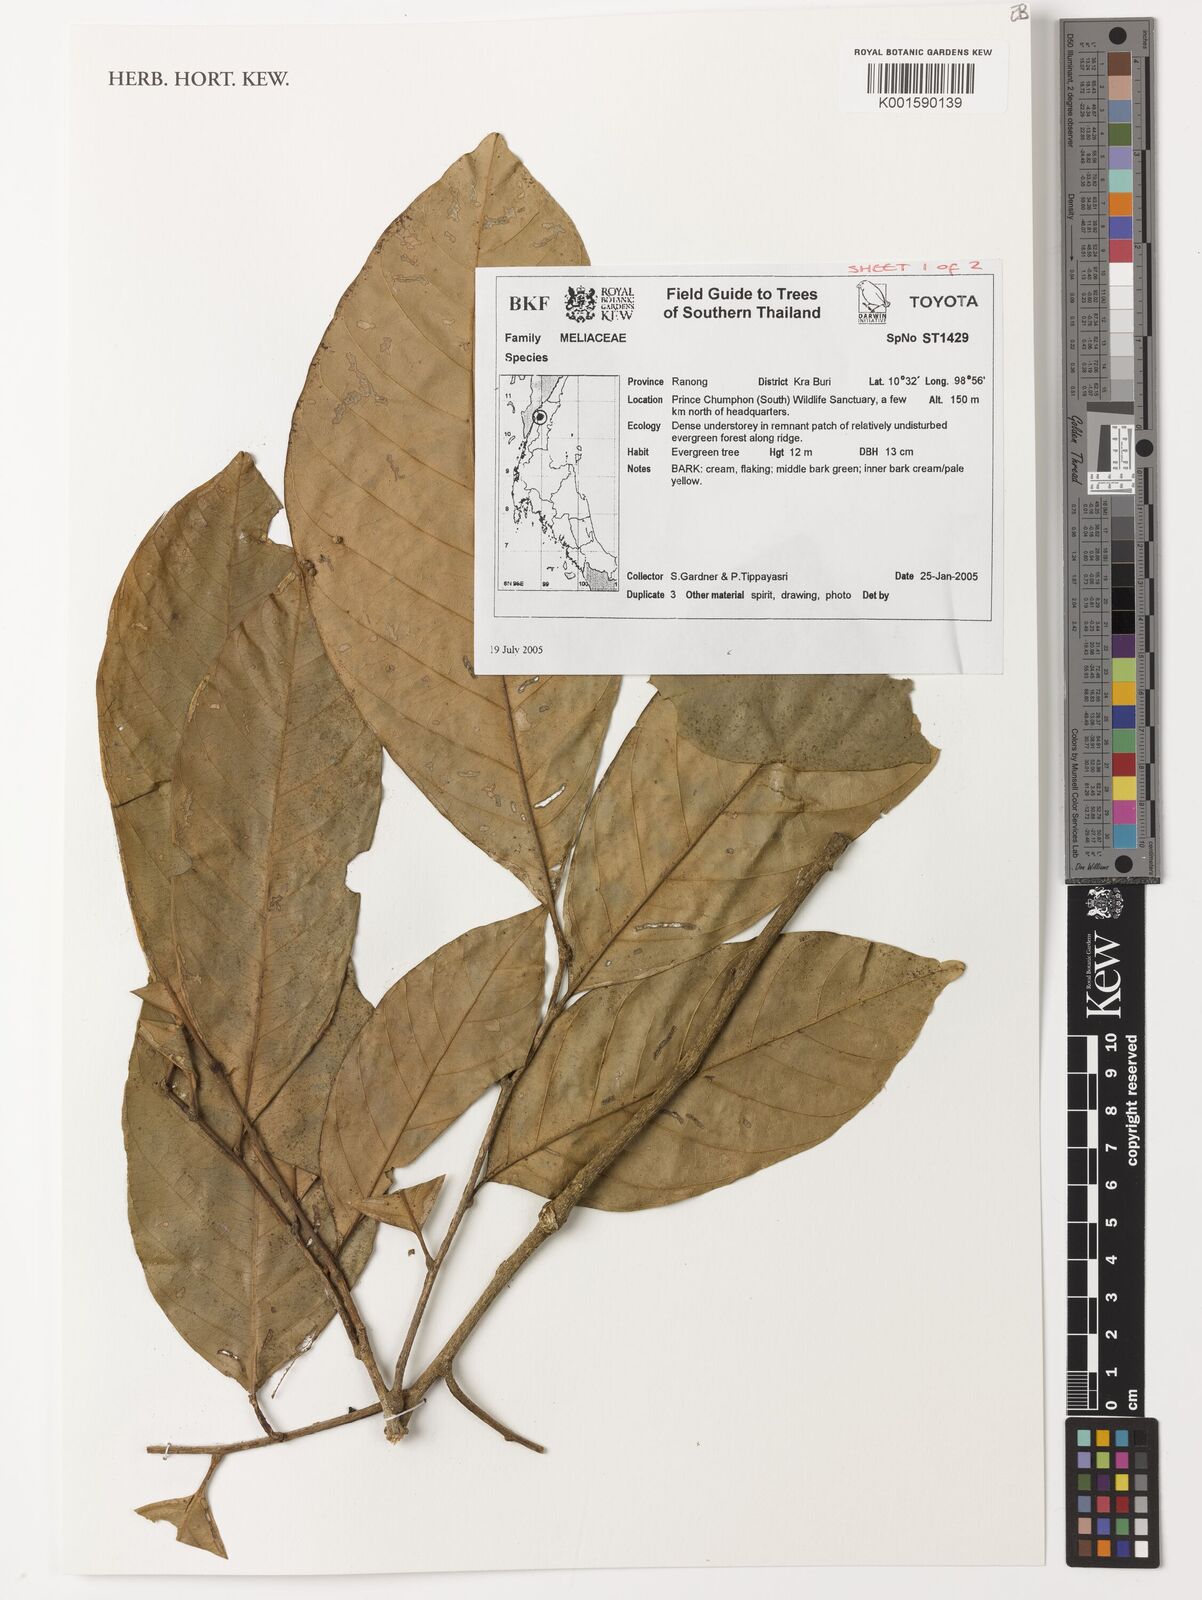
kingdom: Plantae
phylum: Tracheophyta
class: Magnoliopsida
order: Sapindales
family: Meliaceae
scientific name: Meliaceae
